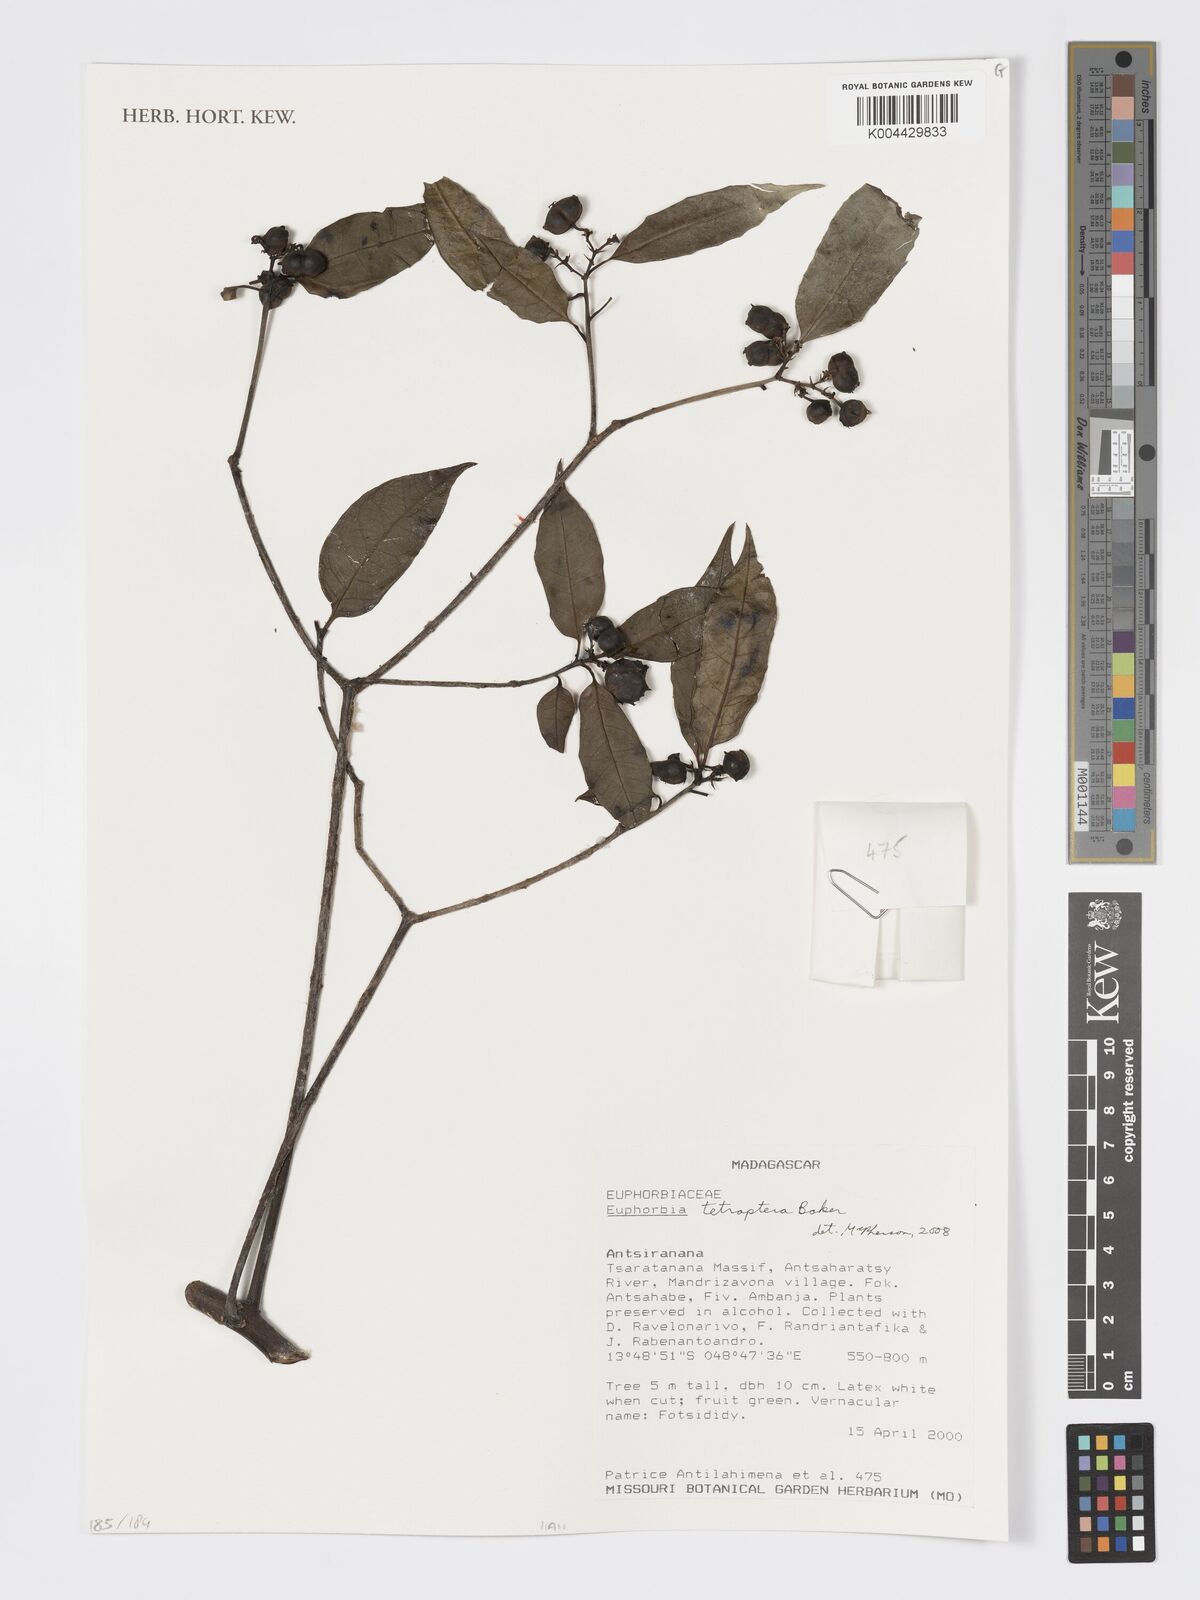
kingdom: Plantae
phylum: Tracheophyta
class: Magnoliopsida
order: Malpighiales
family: Euphorbiaceae
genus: Euphorbia
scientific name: Euphorbia tetraptera
